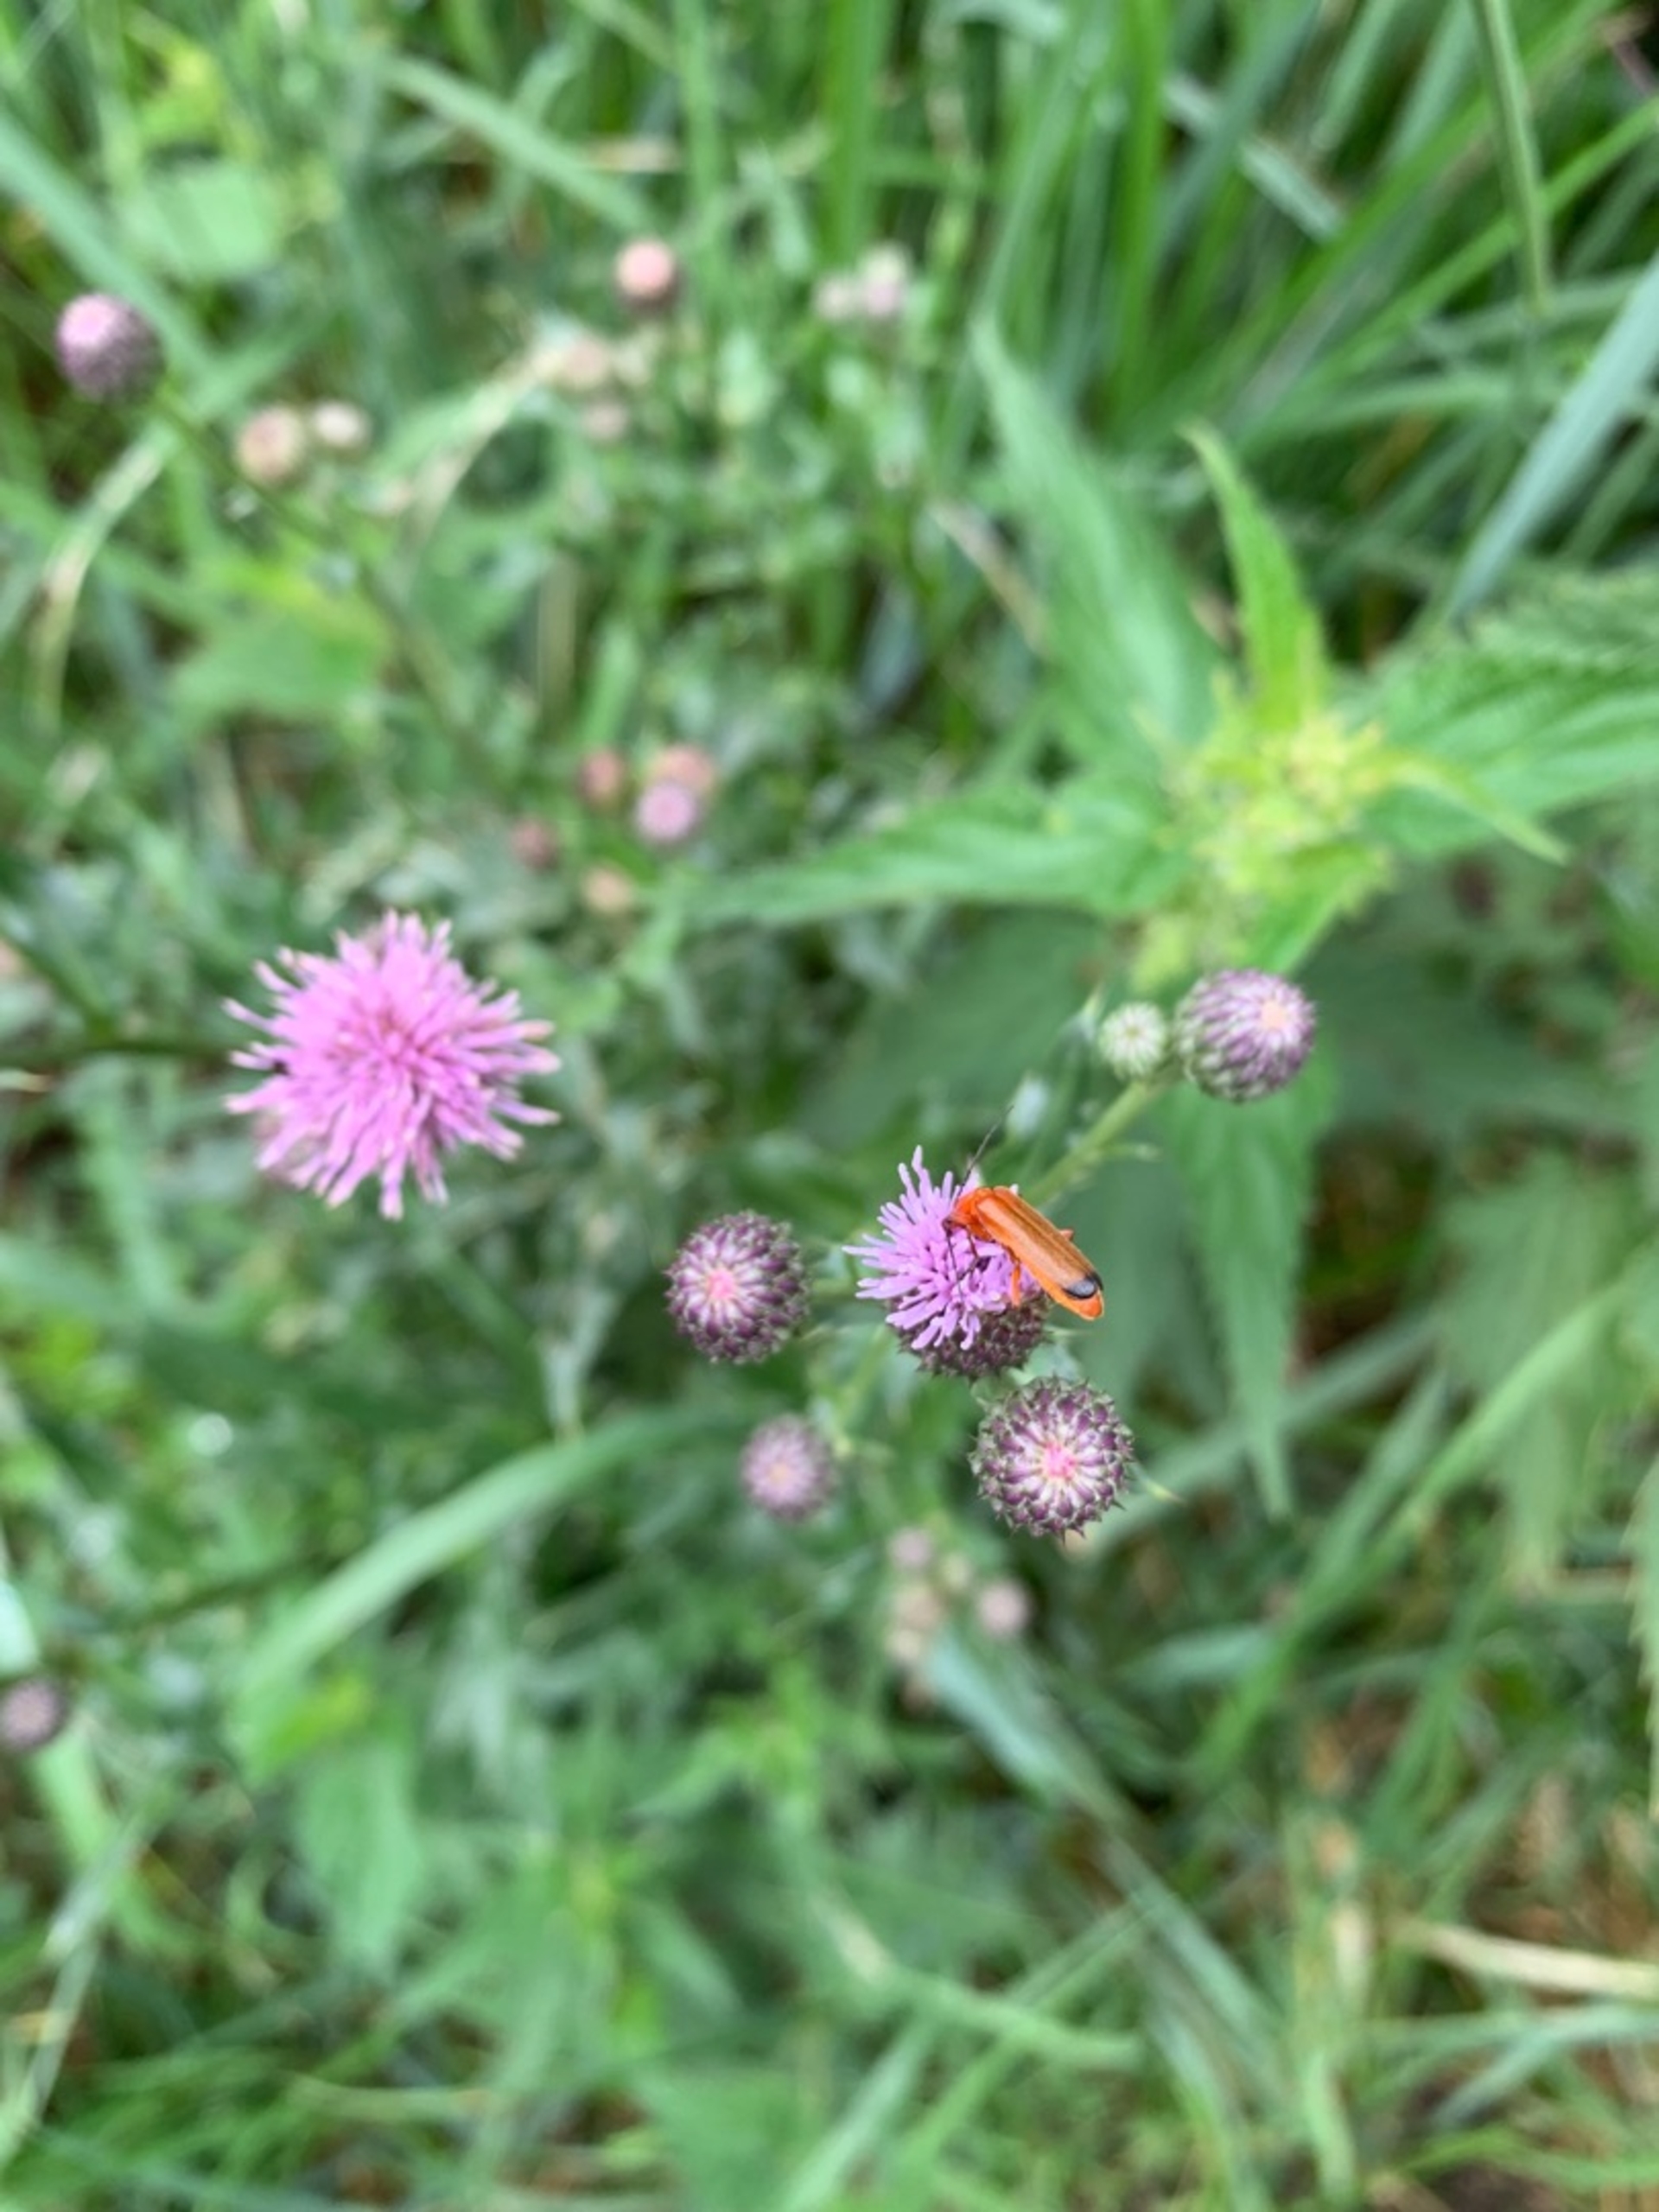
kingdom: Animalia
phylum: Arthropoda
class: Insecta
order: Coleoptera
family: Cantharidae
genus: Rhagonycha
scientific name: Rhagonycha fulva
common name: Præstebille
